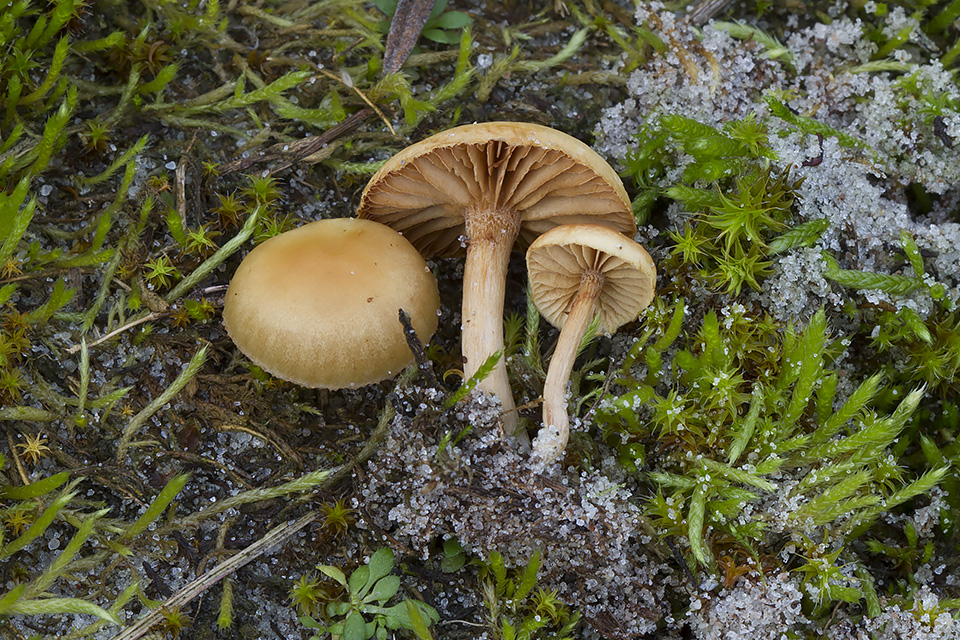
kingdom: Fungi
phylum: Basidiomycota
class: Agaricomycetes
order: Agaricales
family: Hymenogastraceae
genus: Galerina
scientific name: Galerina esteve-raventosii
